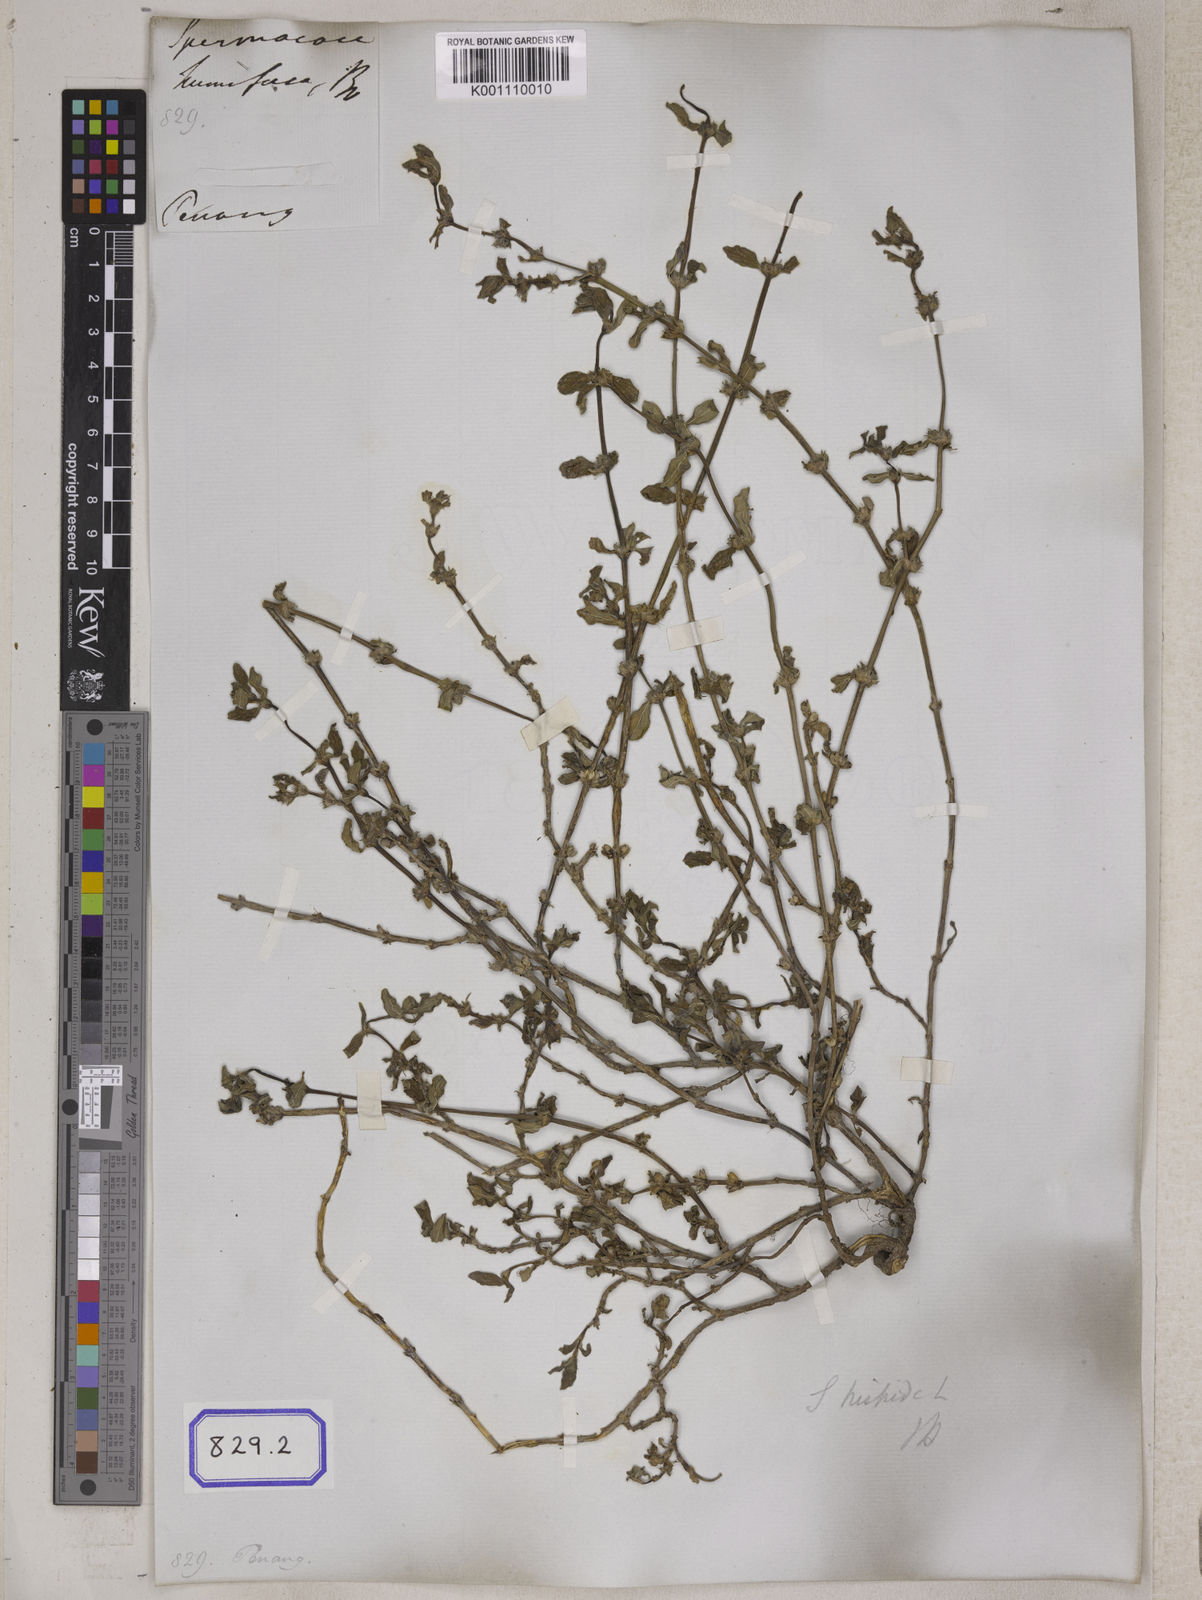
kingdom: Plantae
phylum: Tracheophyta
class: Magnoliopsida
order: Gentianales
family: Rubiaceae
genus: Spermacoce
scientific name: Spermacoce
